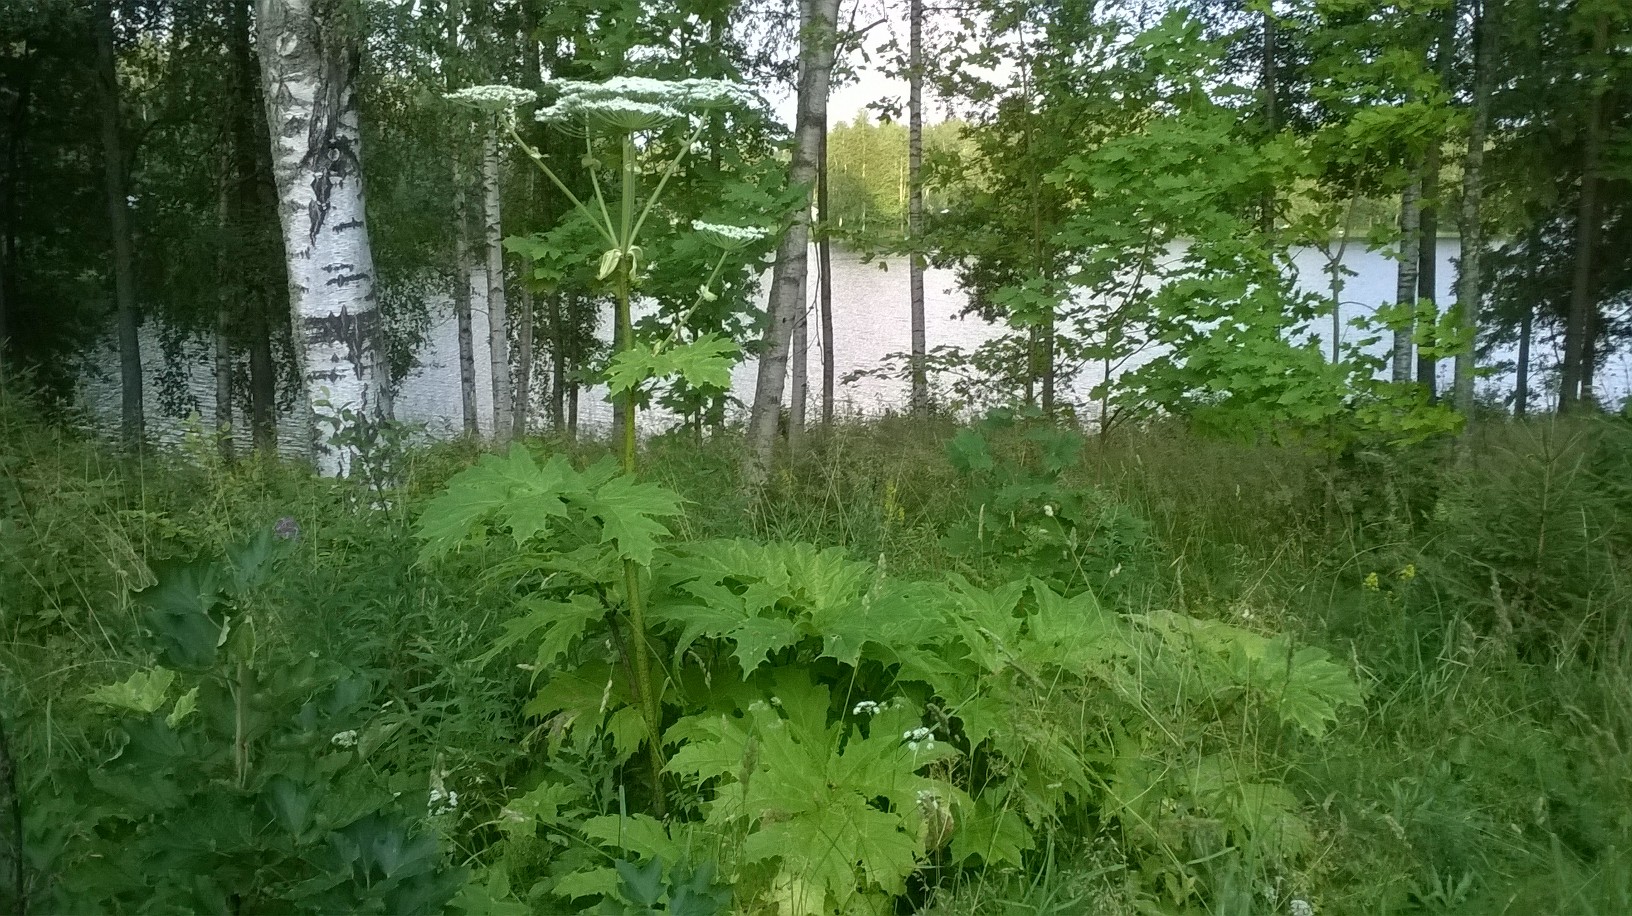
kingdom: Plantae
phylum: Tracheophyta
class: Magnoliopsida
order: Apiales
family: Apiaceae
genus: Heracleum
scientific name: Heracleum
